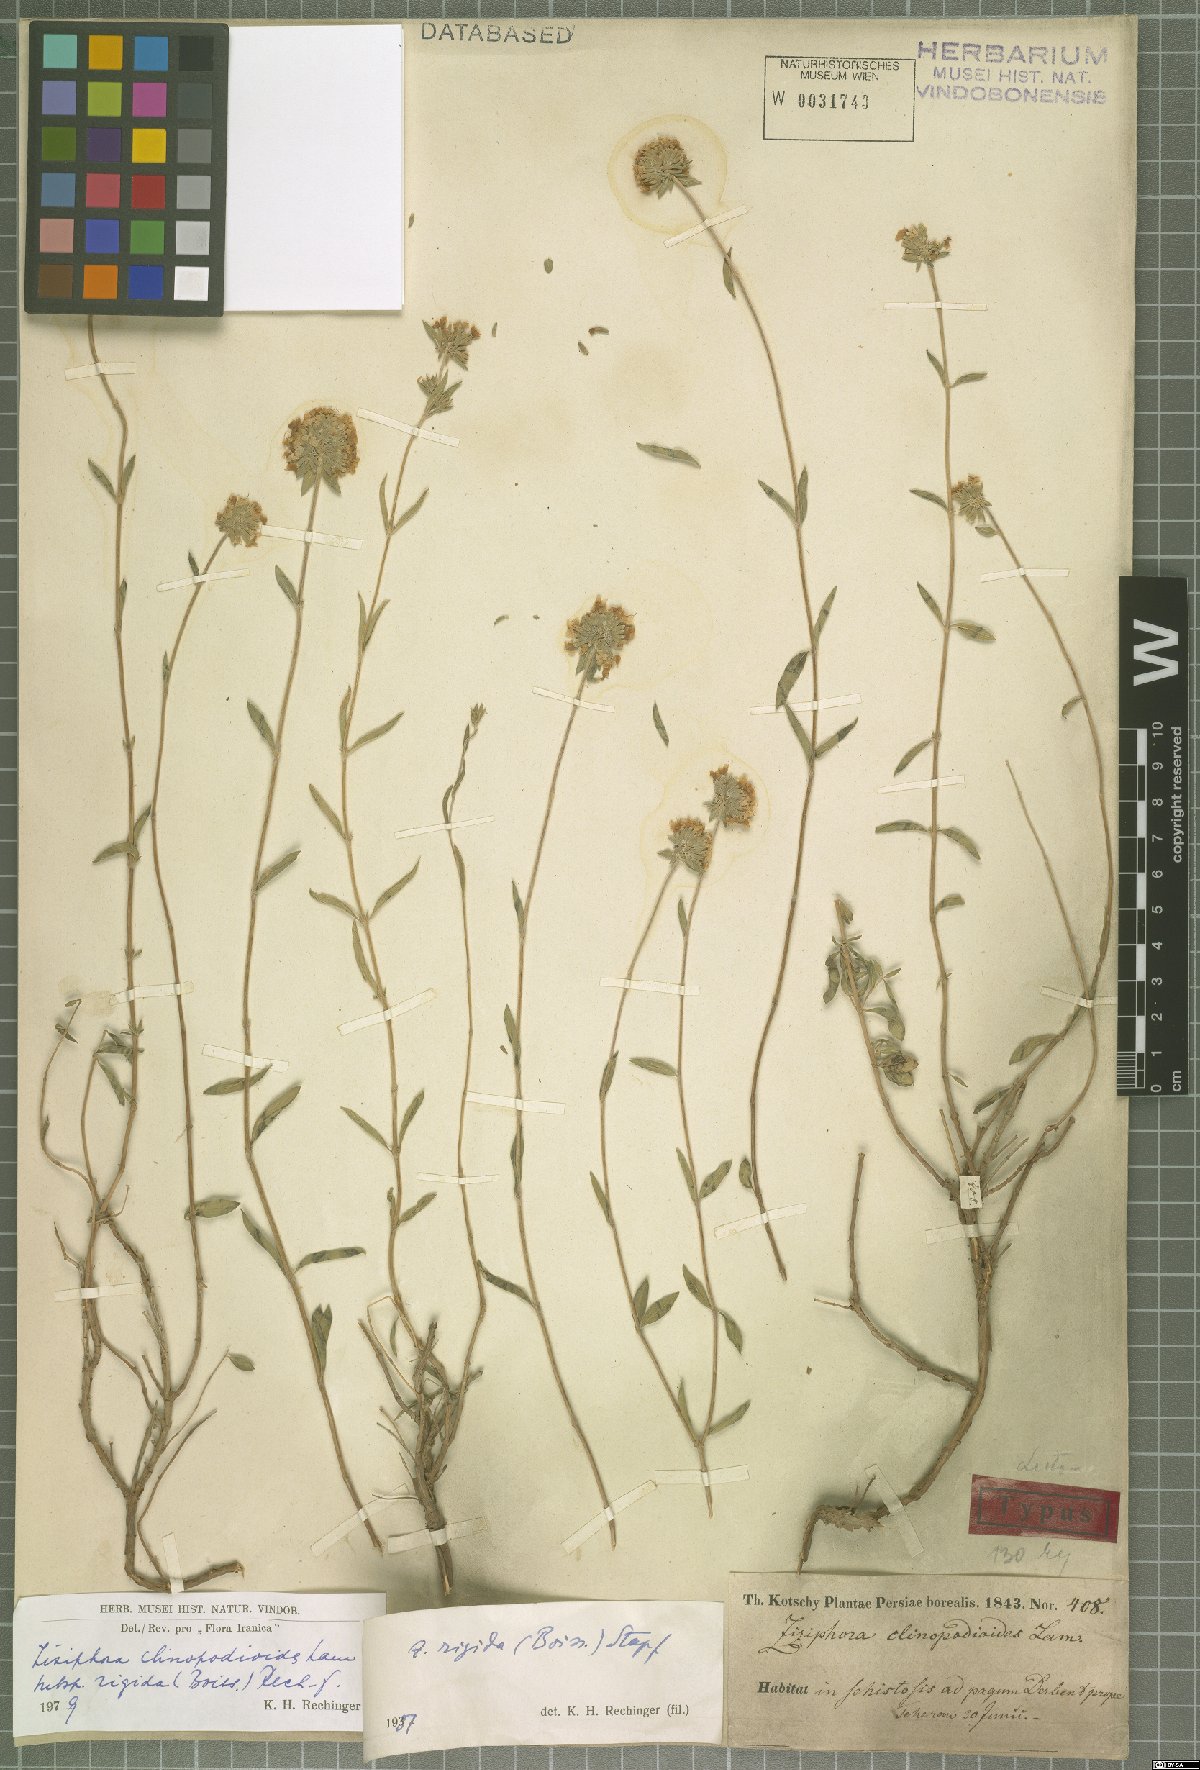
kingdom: Plantae
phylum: Tracheophyta
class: Magnoliopsida
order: Lamiales
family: Lamiaceae
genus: Ziziphora
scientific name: Ziziphora clinopodioides
